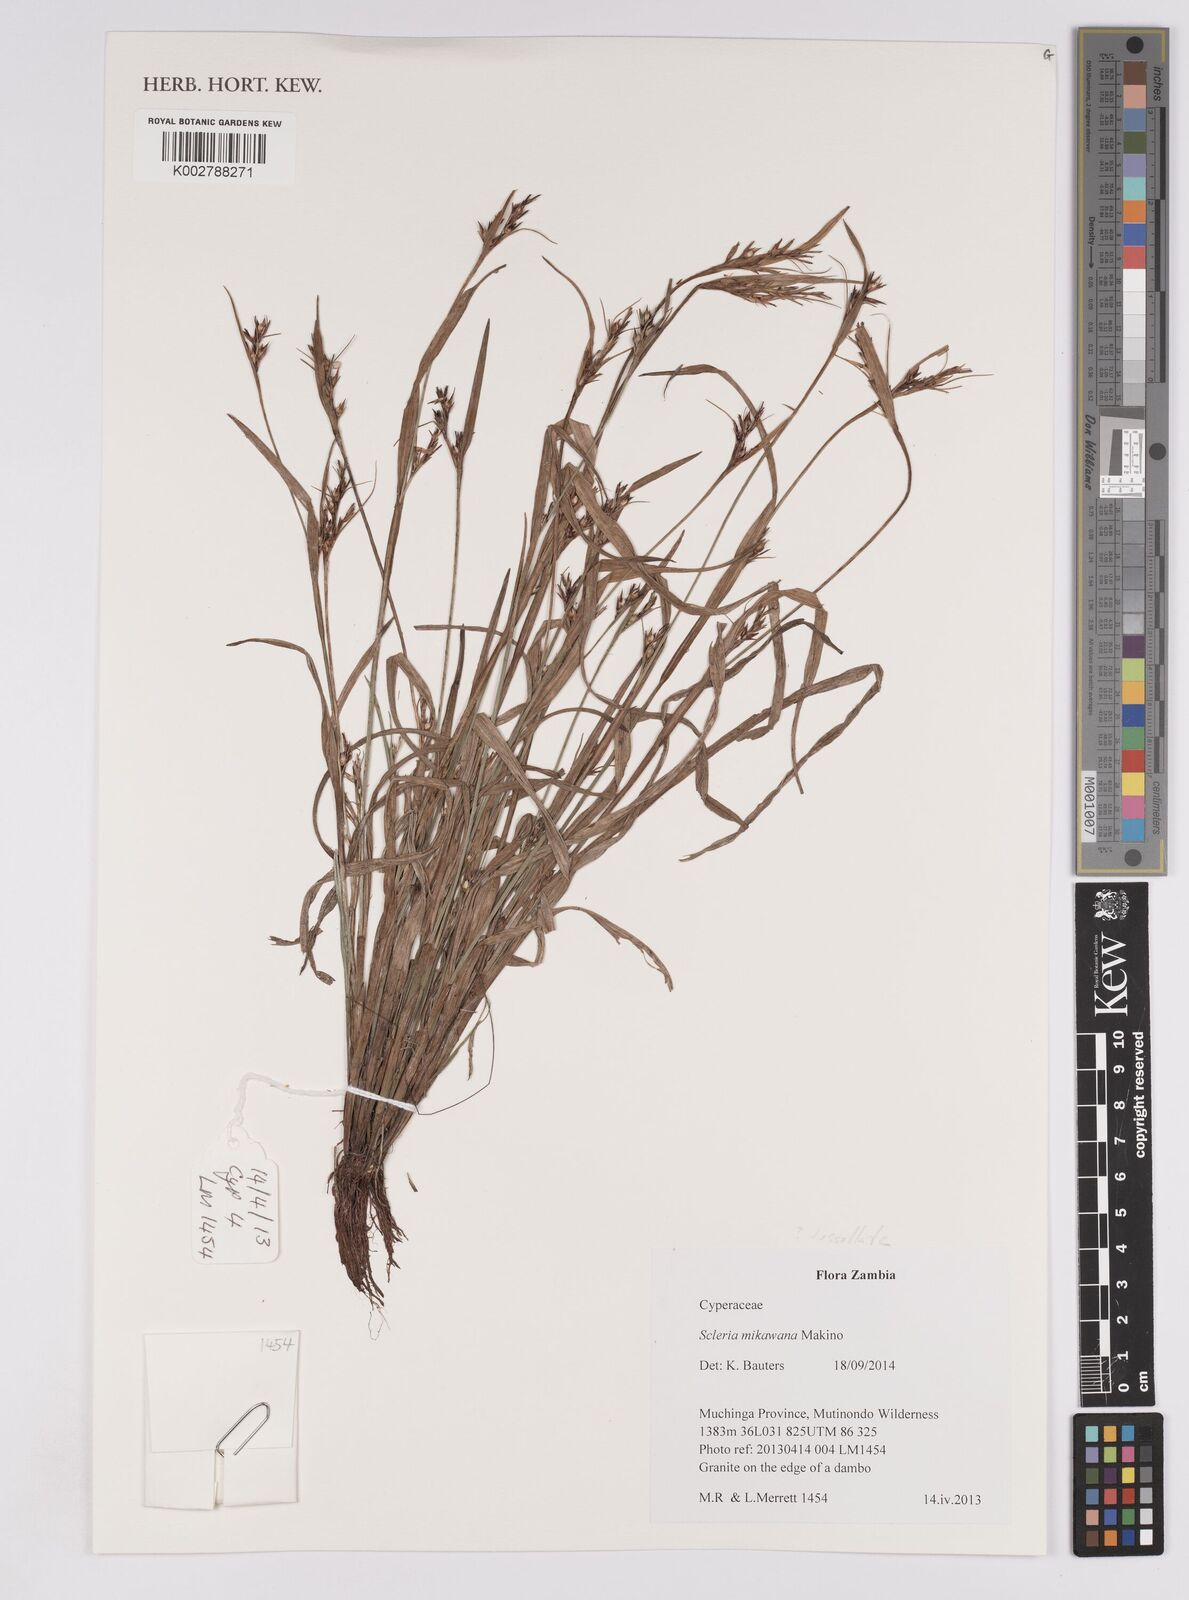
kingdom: Plantae
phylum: Tracheophyta
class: Liliopsida
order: Poales
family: Cyperaceae
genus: Scleria
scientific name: Scleria mikawana
